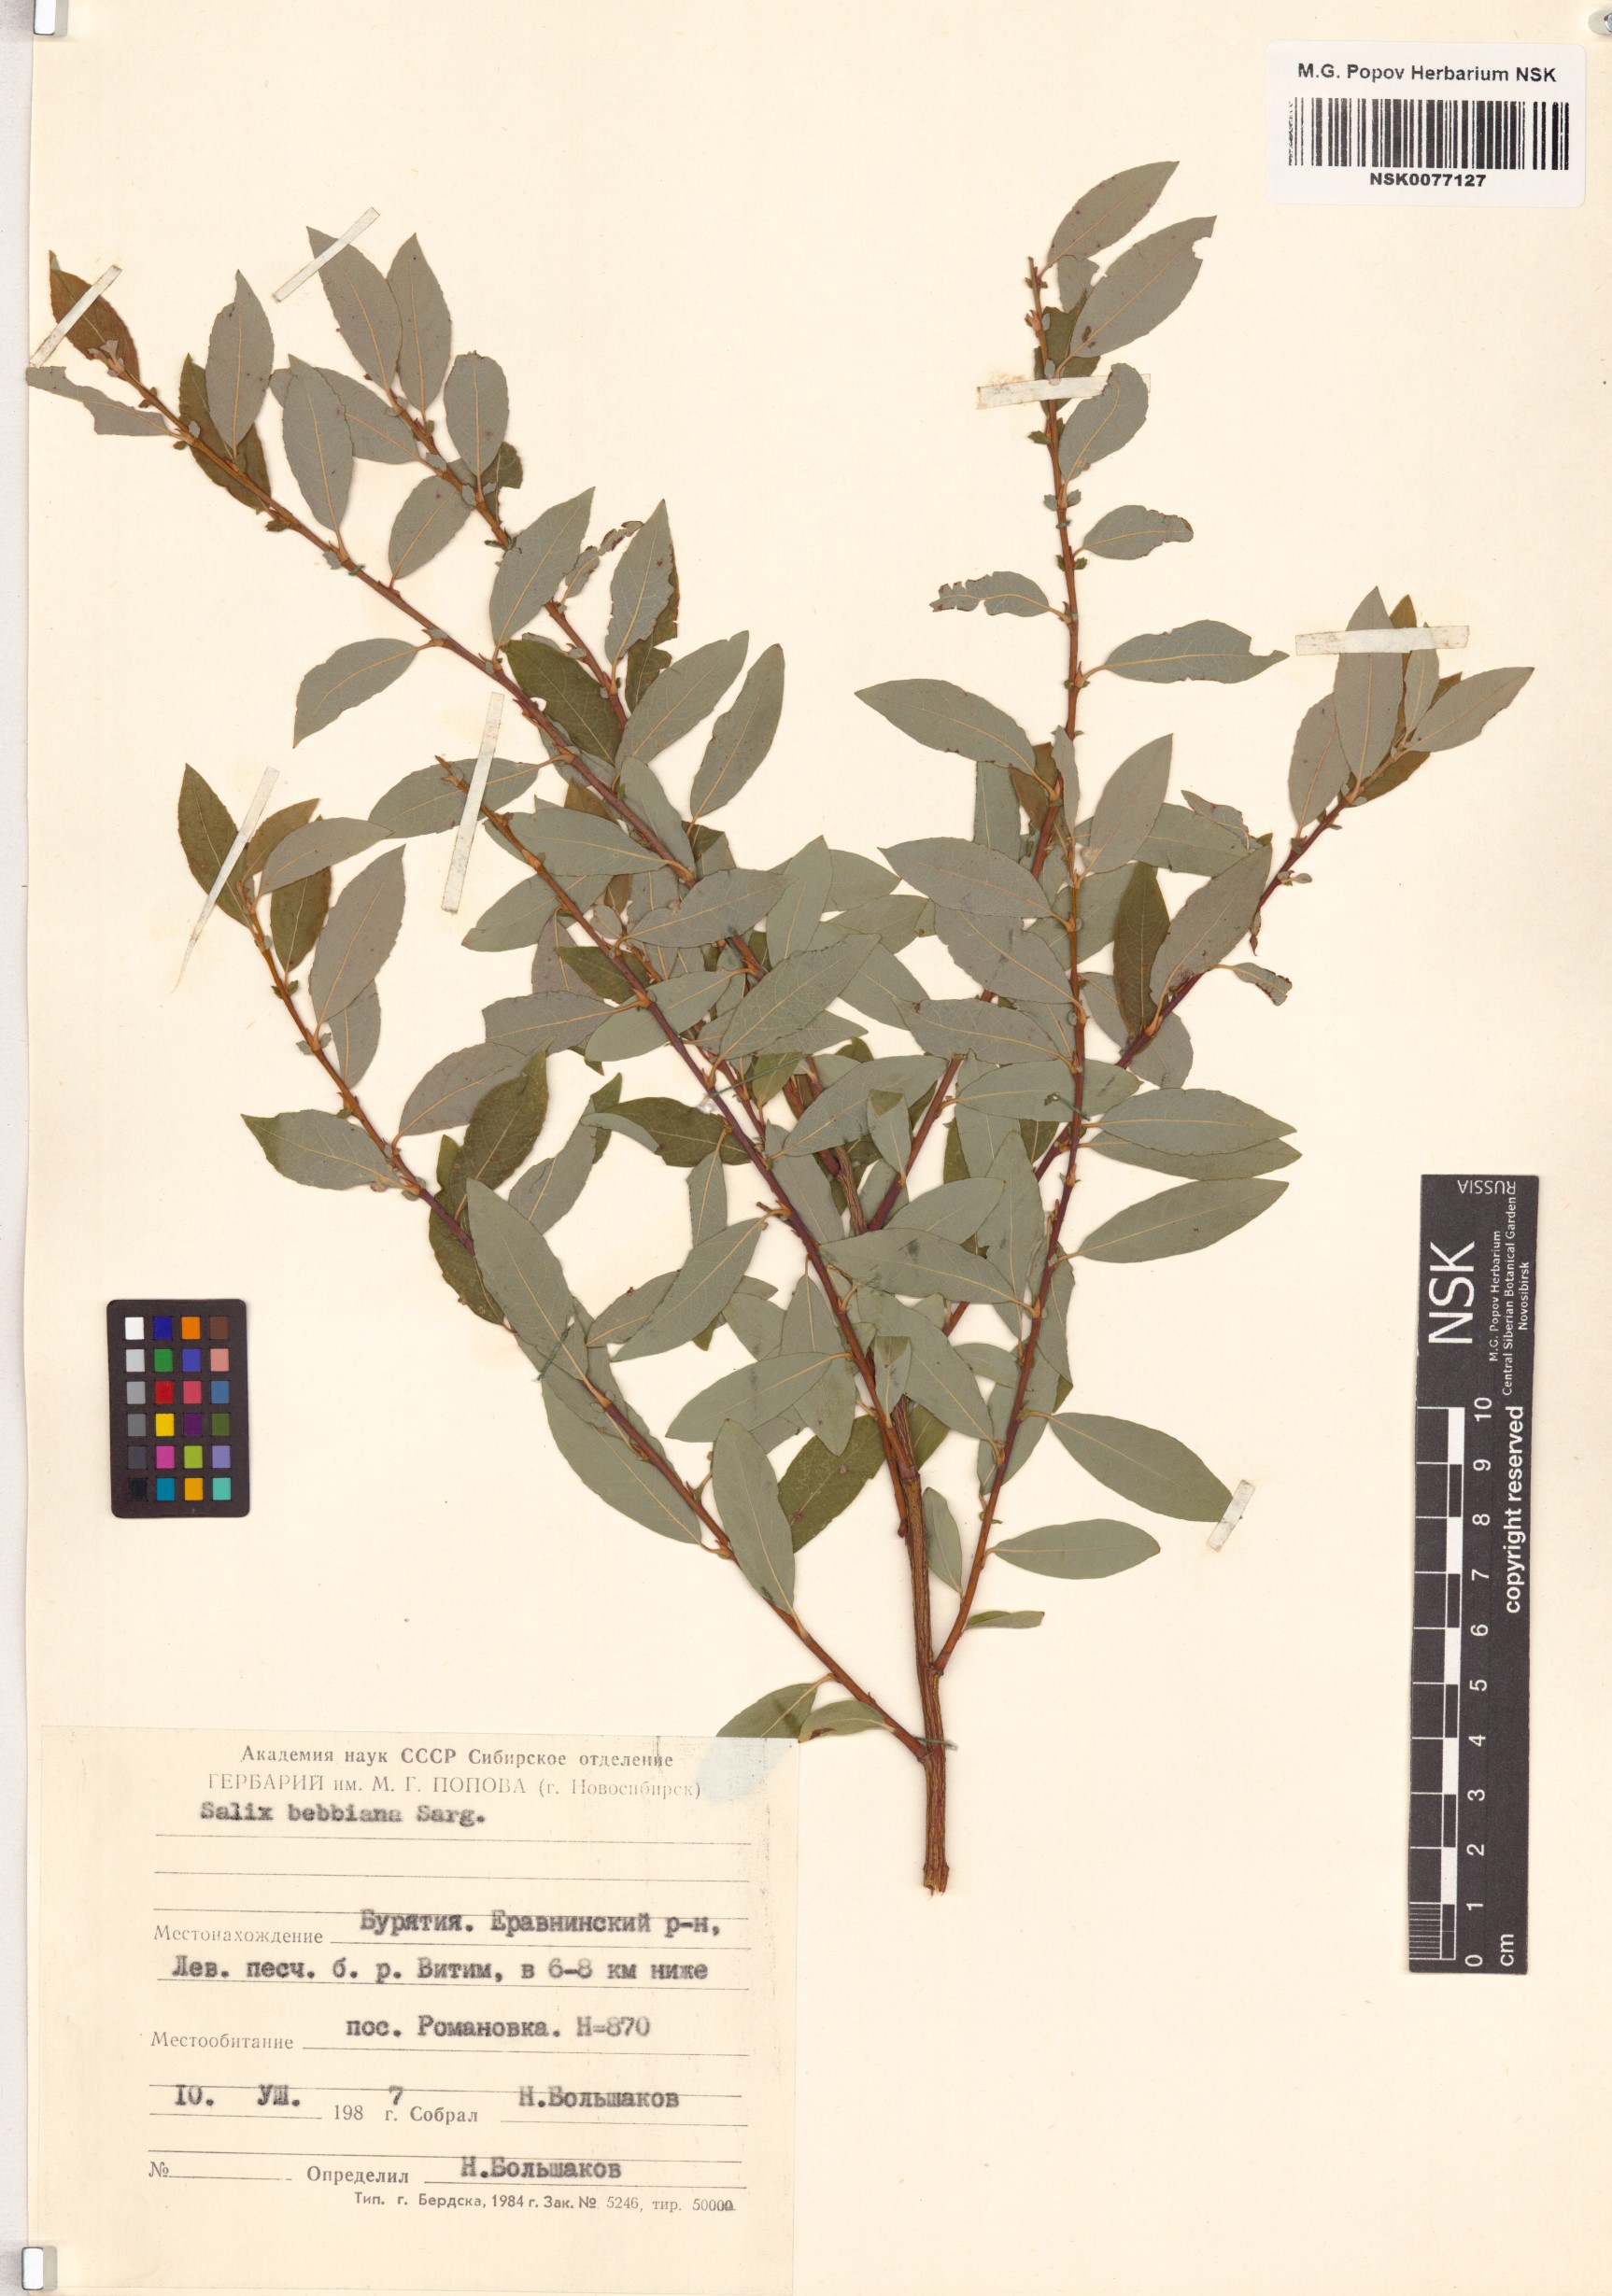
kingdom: Plantae
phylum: Tracheophyta
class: Magnoliopsida
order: Malpighiales
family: Salicaceae
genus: Salix
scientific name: Salix bebbiana
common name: Bebb's willow
